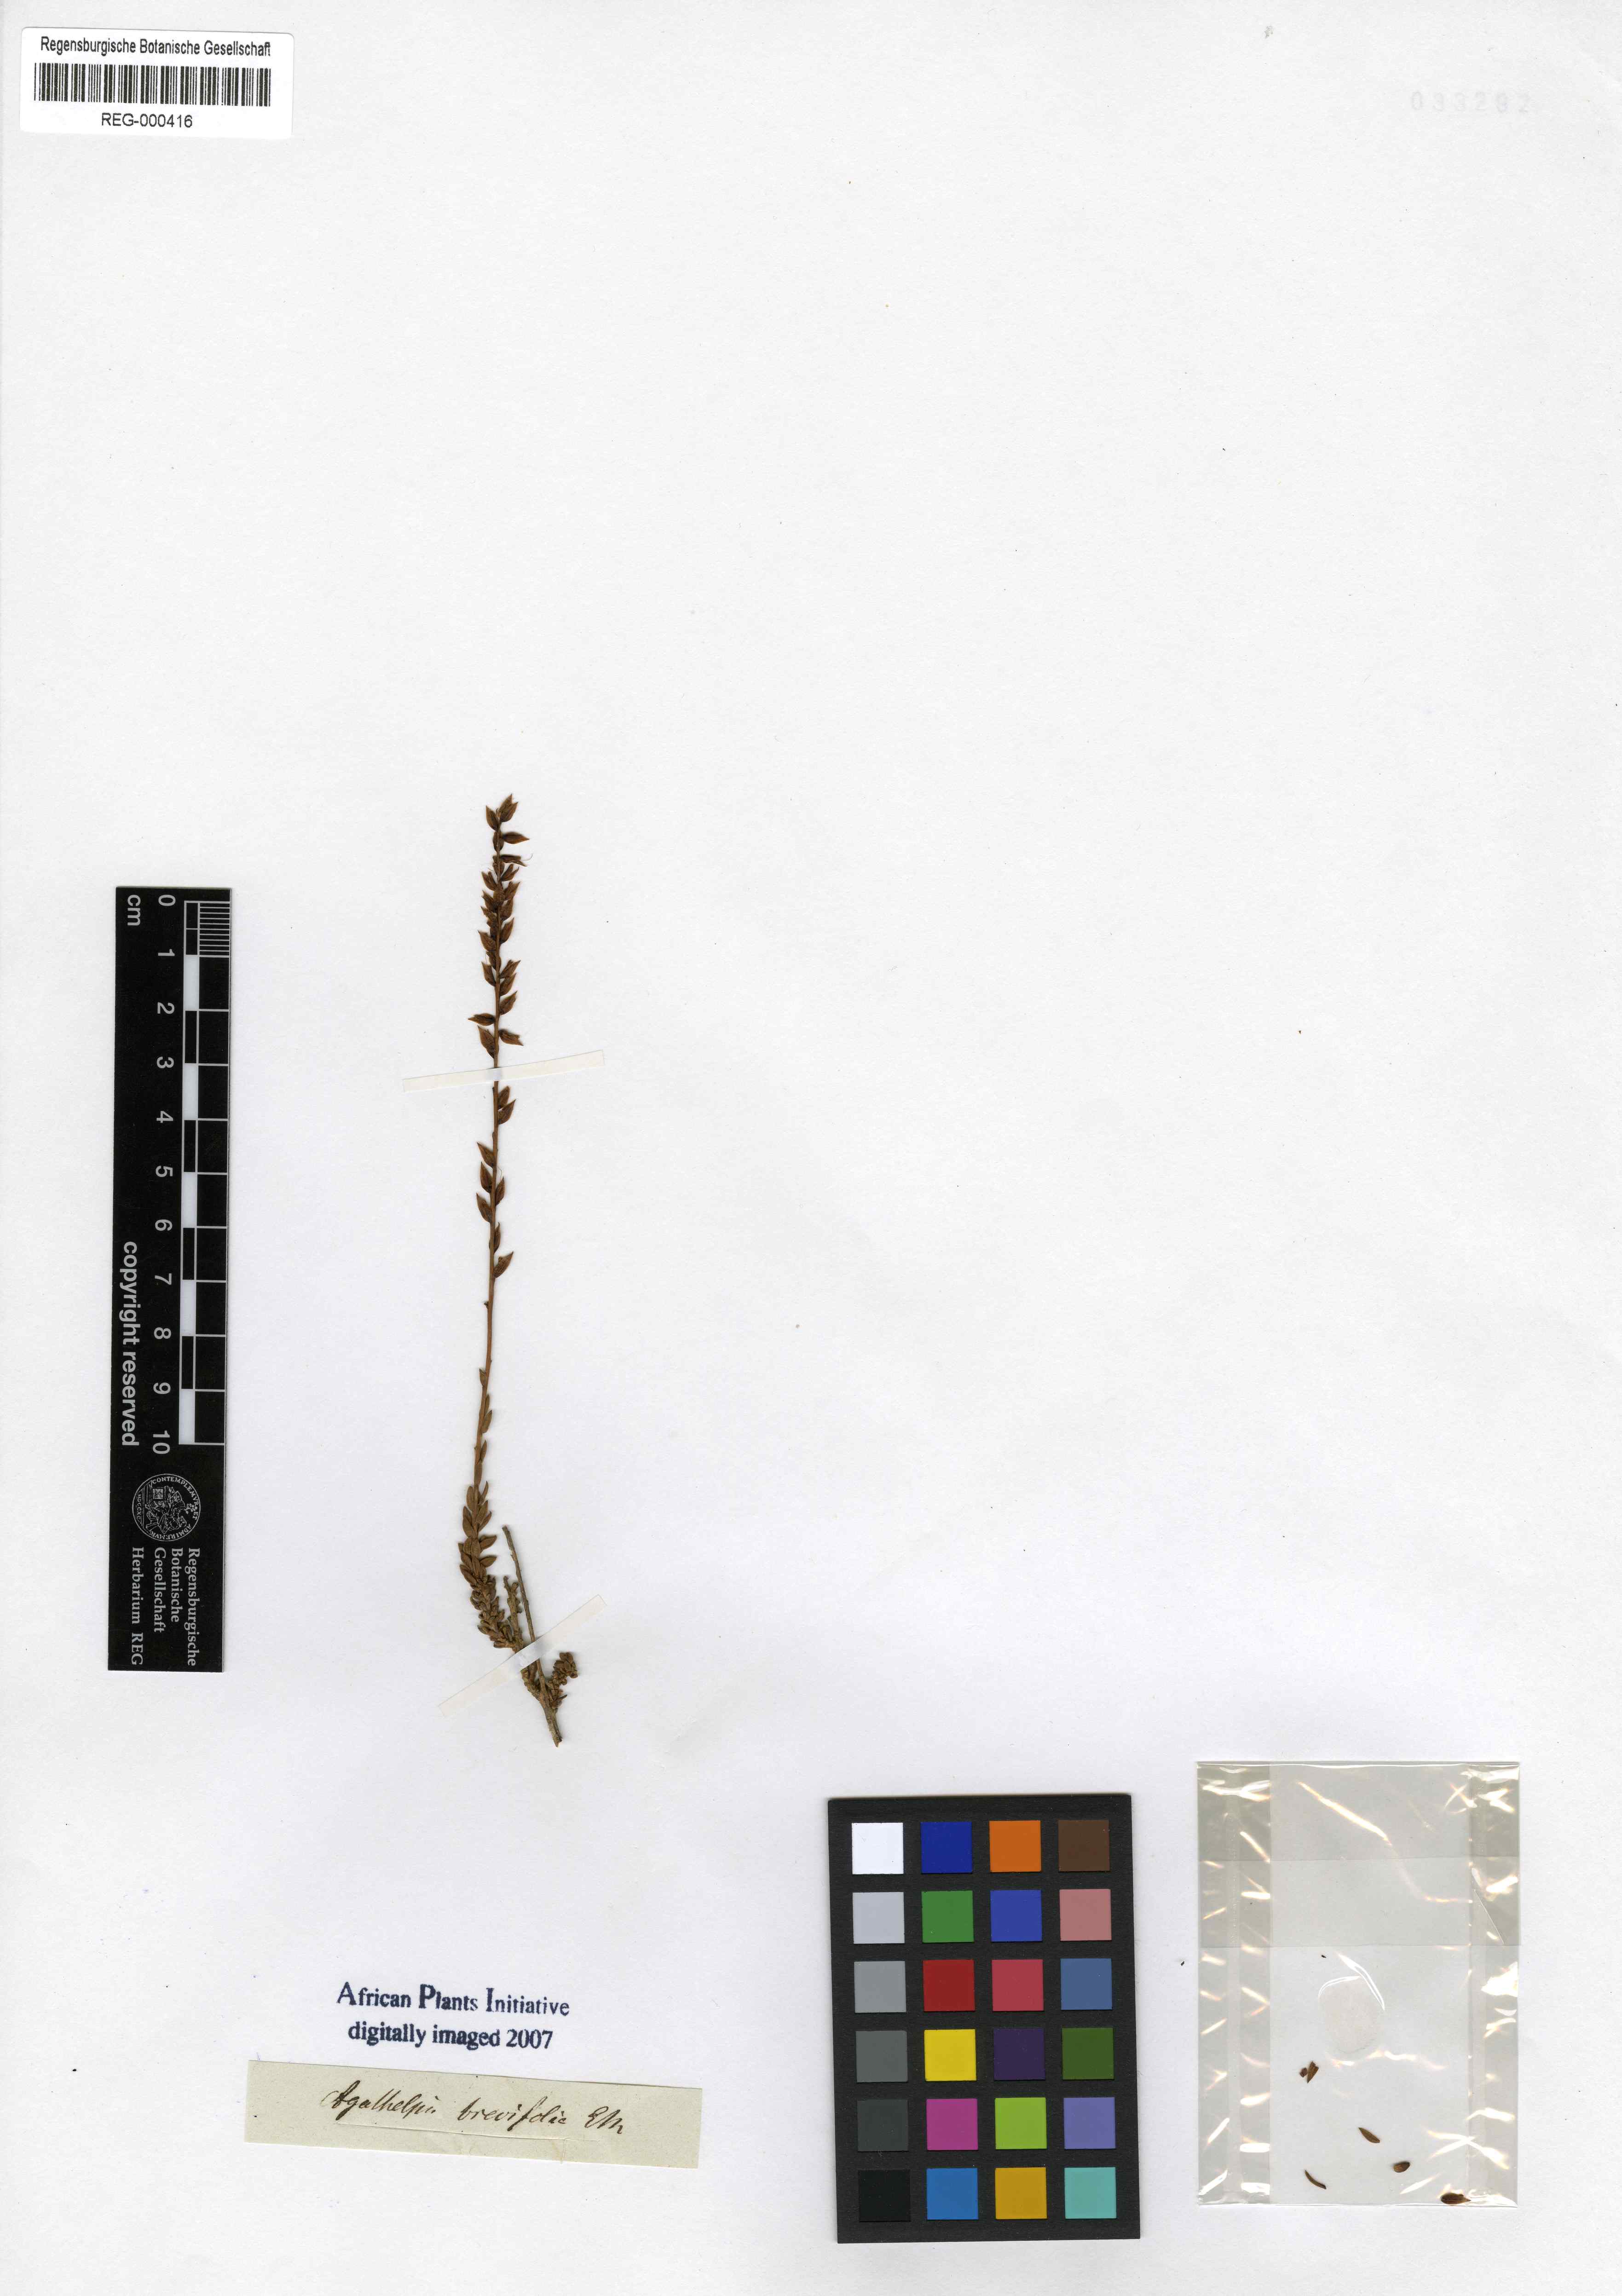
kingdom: Plantae
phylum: Tracheophyta
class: Magnoliopsida
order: Lamiales
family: Scrophulariaceae
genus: Microdon
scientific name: Microdon dubius
